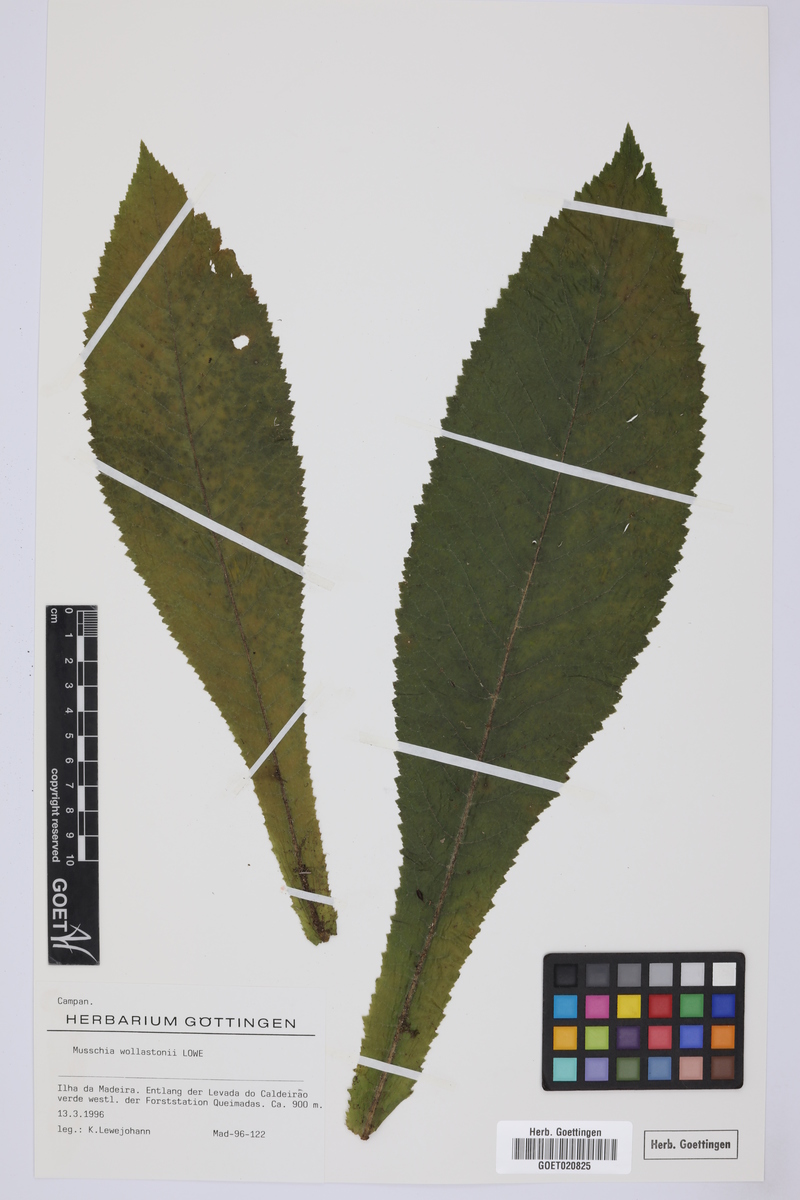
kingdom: Plantae
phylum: Tracheophyta
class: Magnoliopsida
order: Asterales
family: Campanulaceae
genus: Musschia
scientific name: Musschia wollastonii
